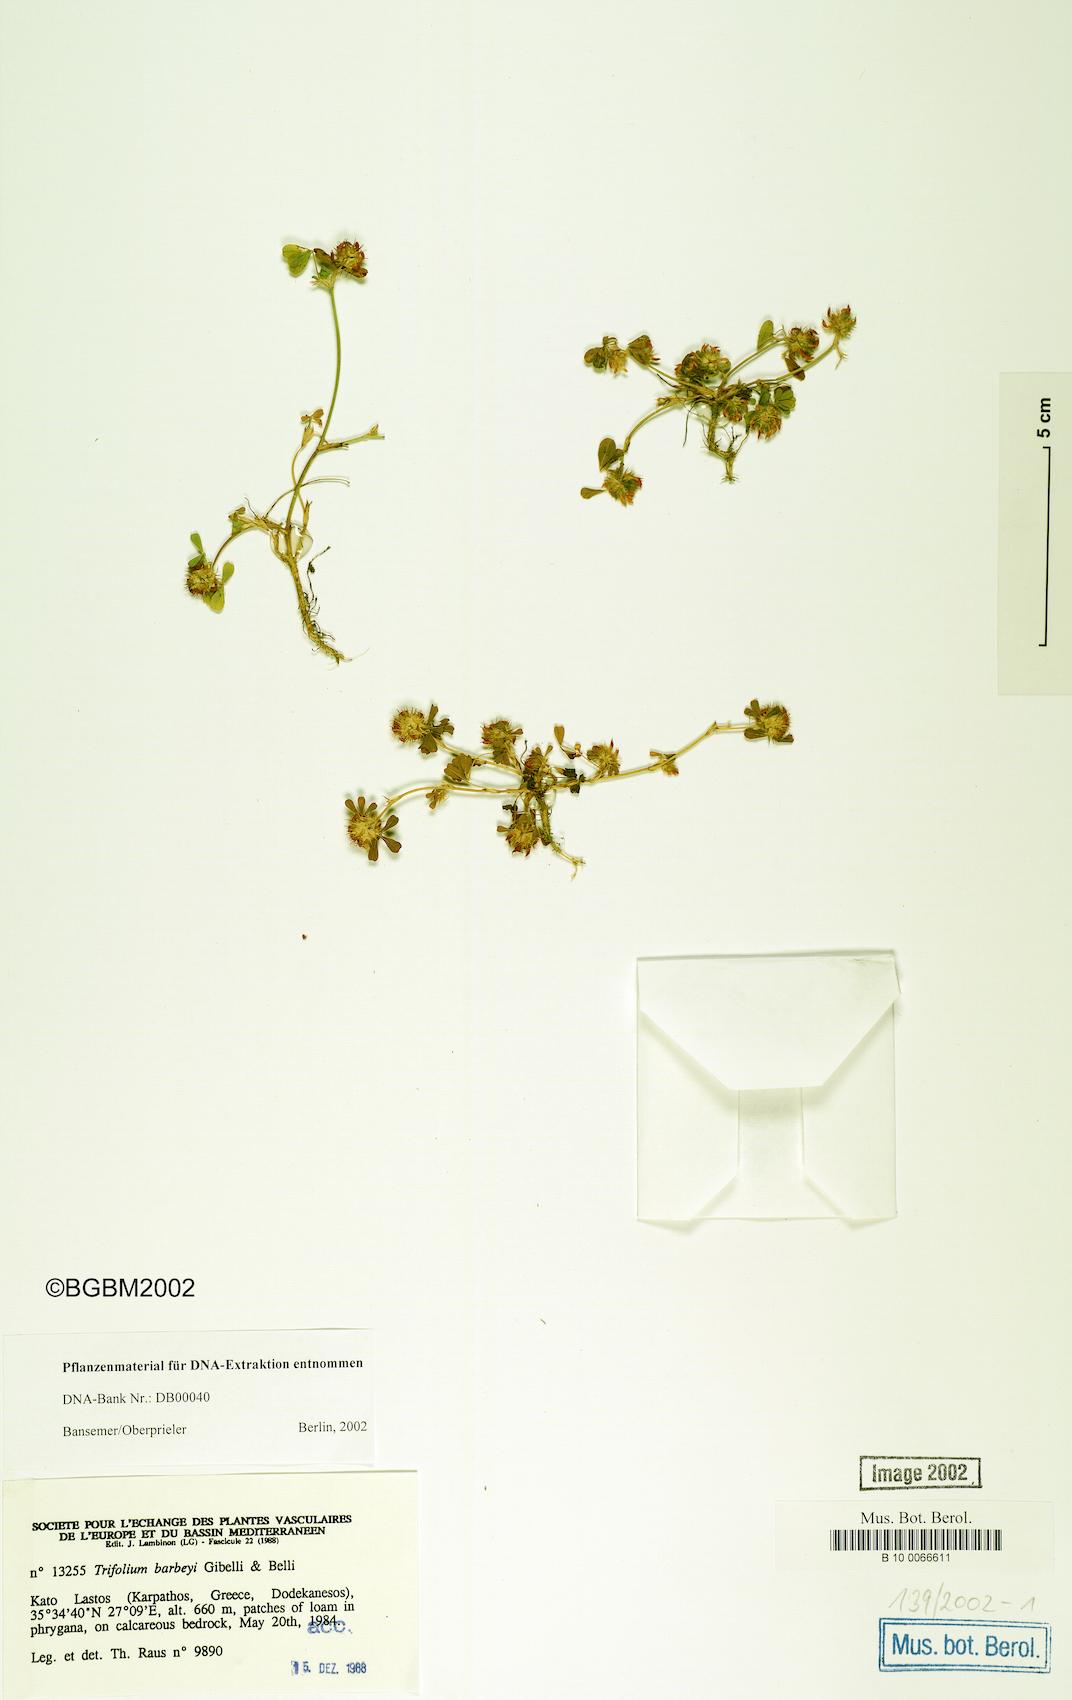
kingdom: Plantae
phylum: Tracheophyta
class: Magnoliopsida
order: Fabales
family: Fabaceae
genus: Trifolium
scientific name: Trifolium lappaceum
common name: Bur clover
